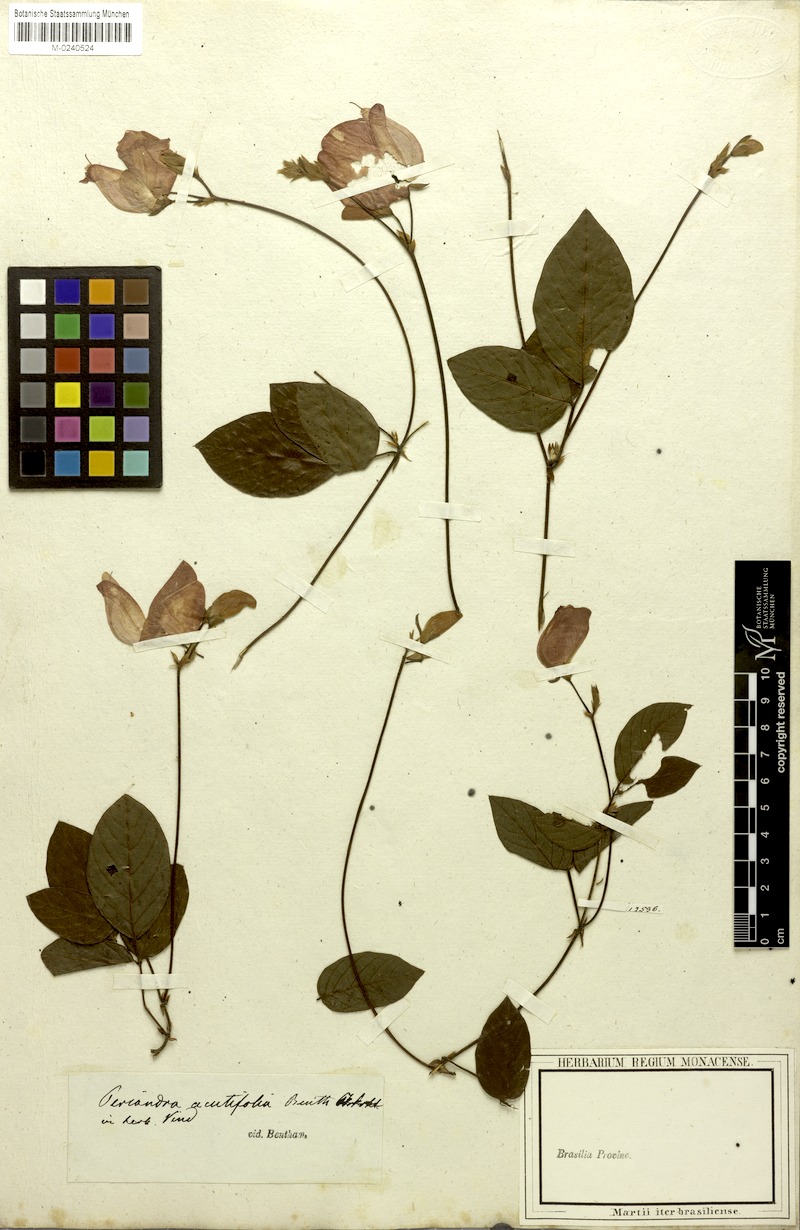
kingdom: Plantae
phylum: Tracheophyta
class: Magnoliopsida
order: Fabales
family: Fabaceae
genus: Periandra
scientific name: Periandra coccinea
